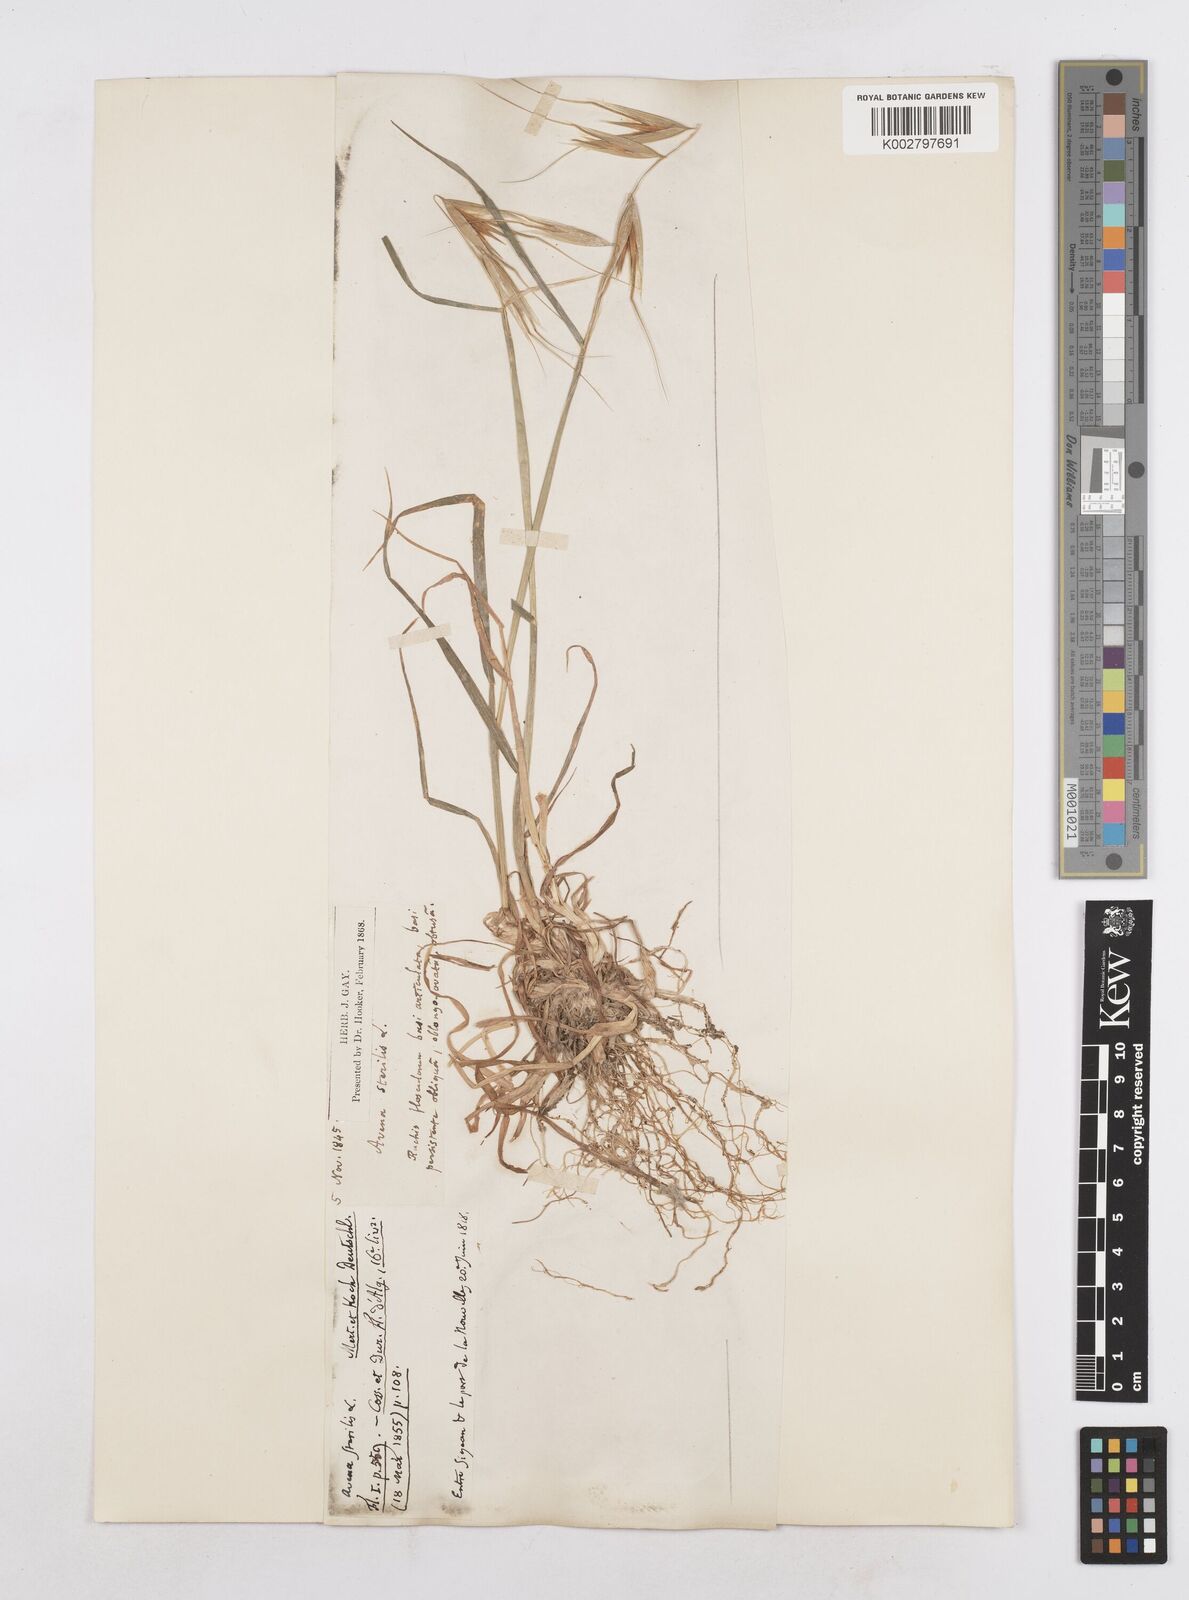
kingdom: Plantae
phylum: Tracheophyta
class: Liliopsida
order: Poales
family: Poaceae
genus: Avena
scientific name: Avena sterilis
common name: Animated oat
